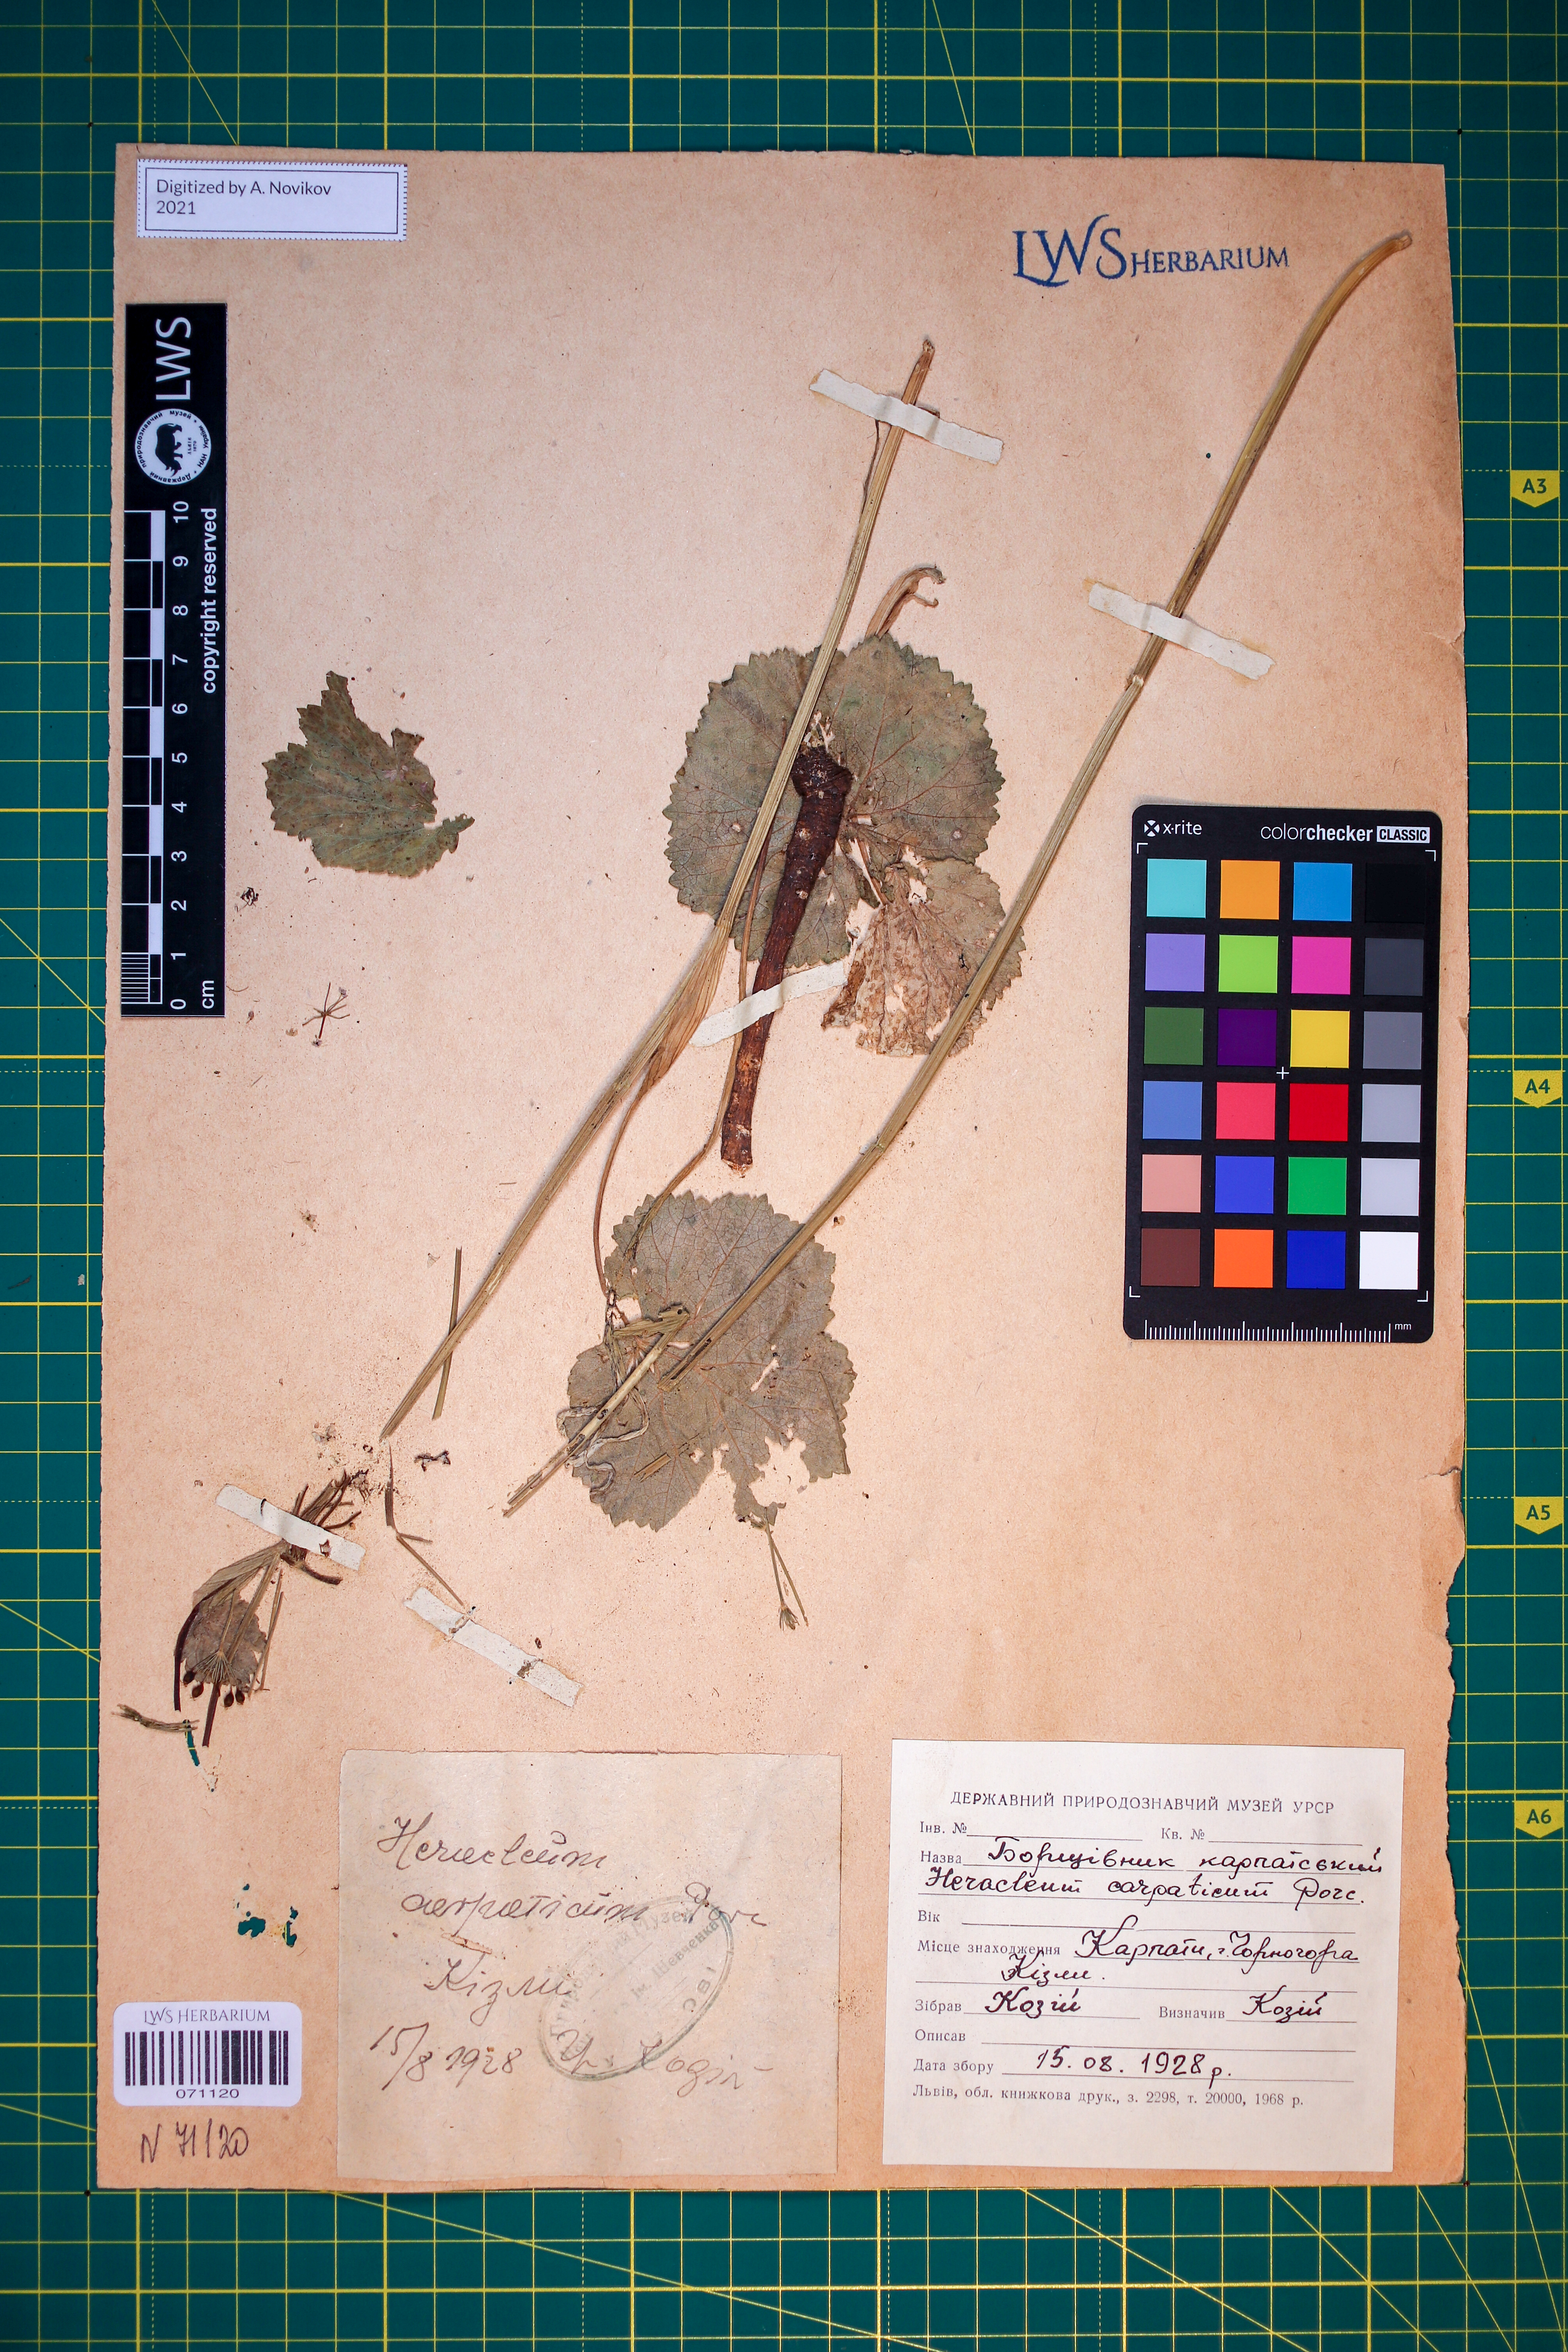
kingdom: Plantae
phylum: Tracheophyta
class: Magnoliopsida
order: Apiales
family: Apiaceae
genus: Heracleum
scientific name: Heracleum carpaticum
